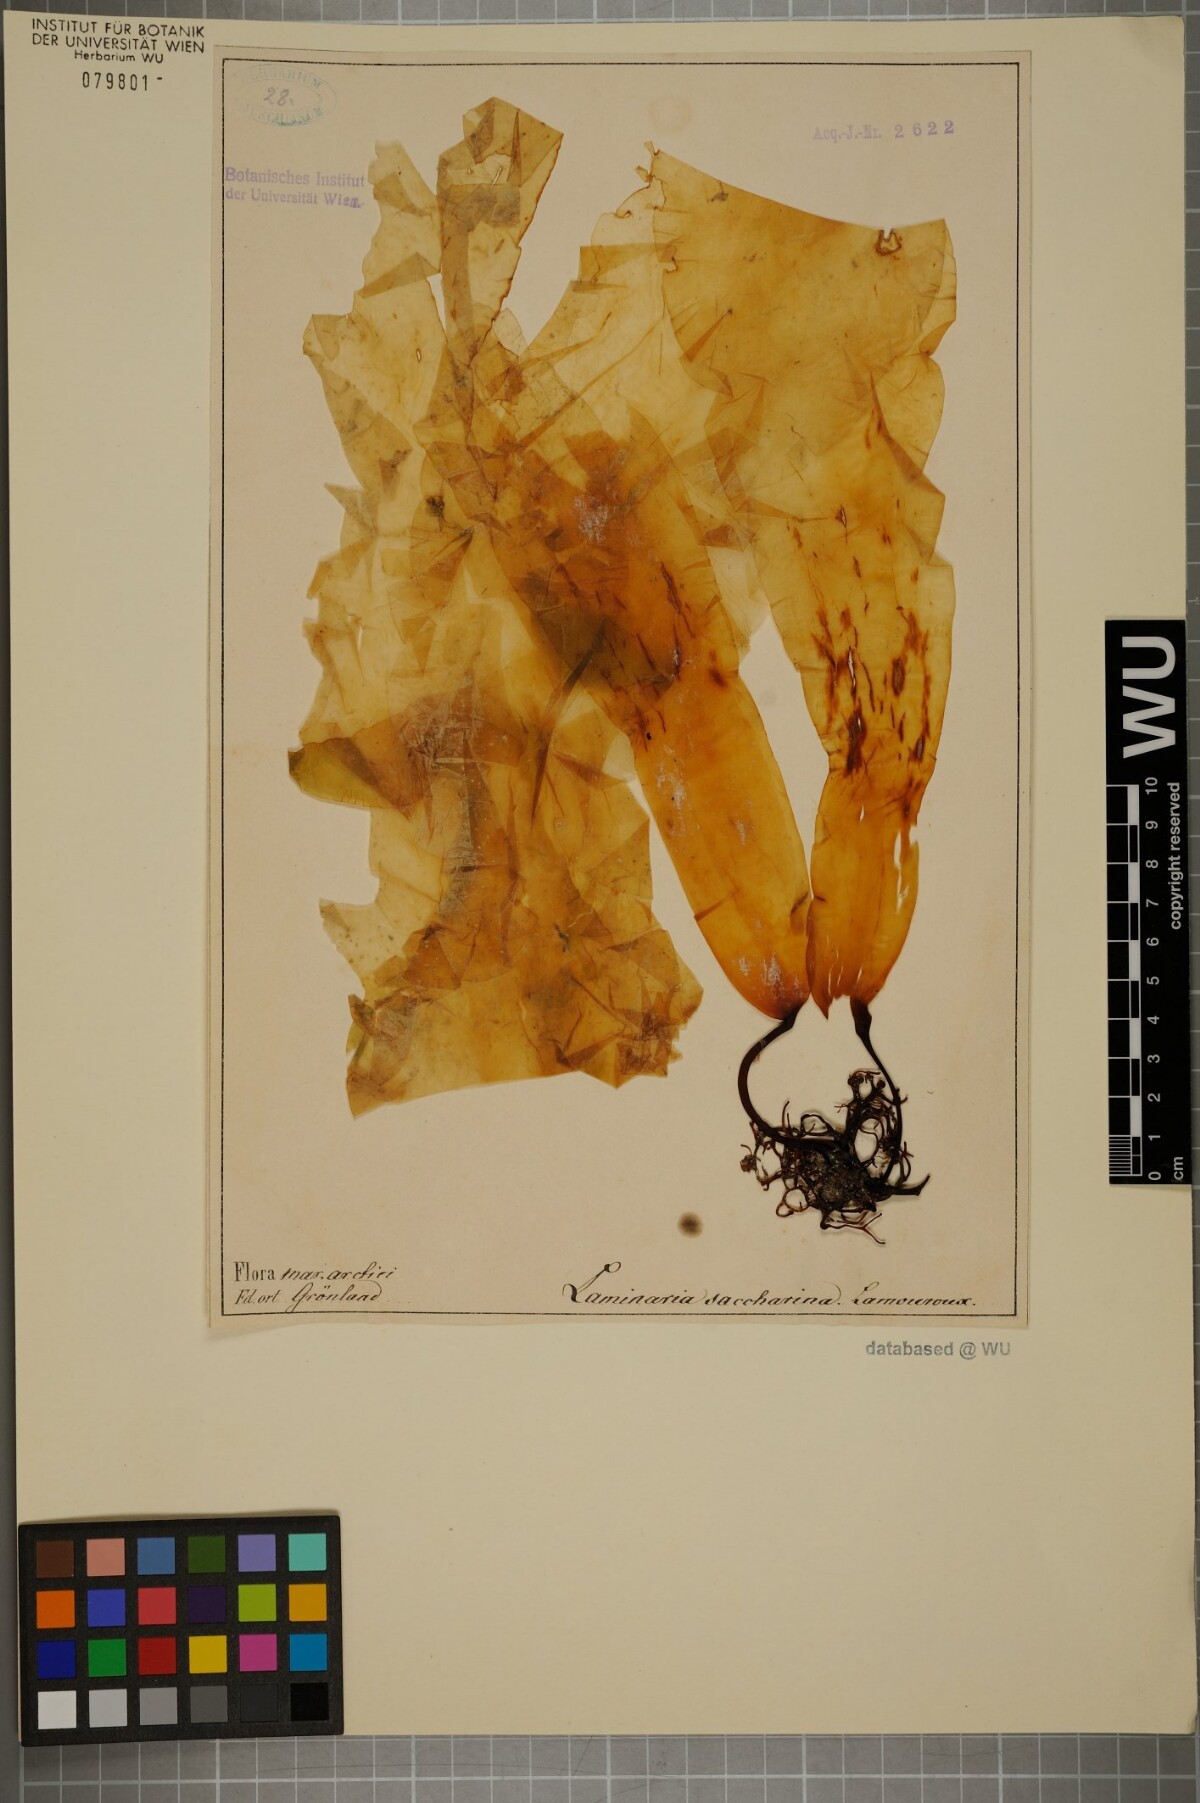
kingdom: Chromista
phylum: Ochrophyta
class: Phaeophyceae
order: Laminariales
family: Laminariaceae
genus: Saccharina
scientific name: Saccharina latissima
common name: Poor man's weather glass
